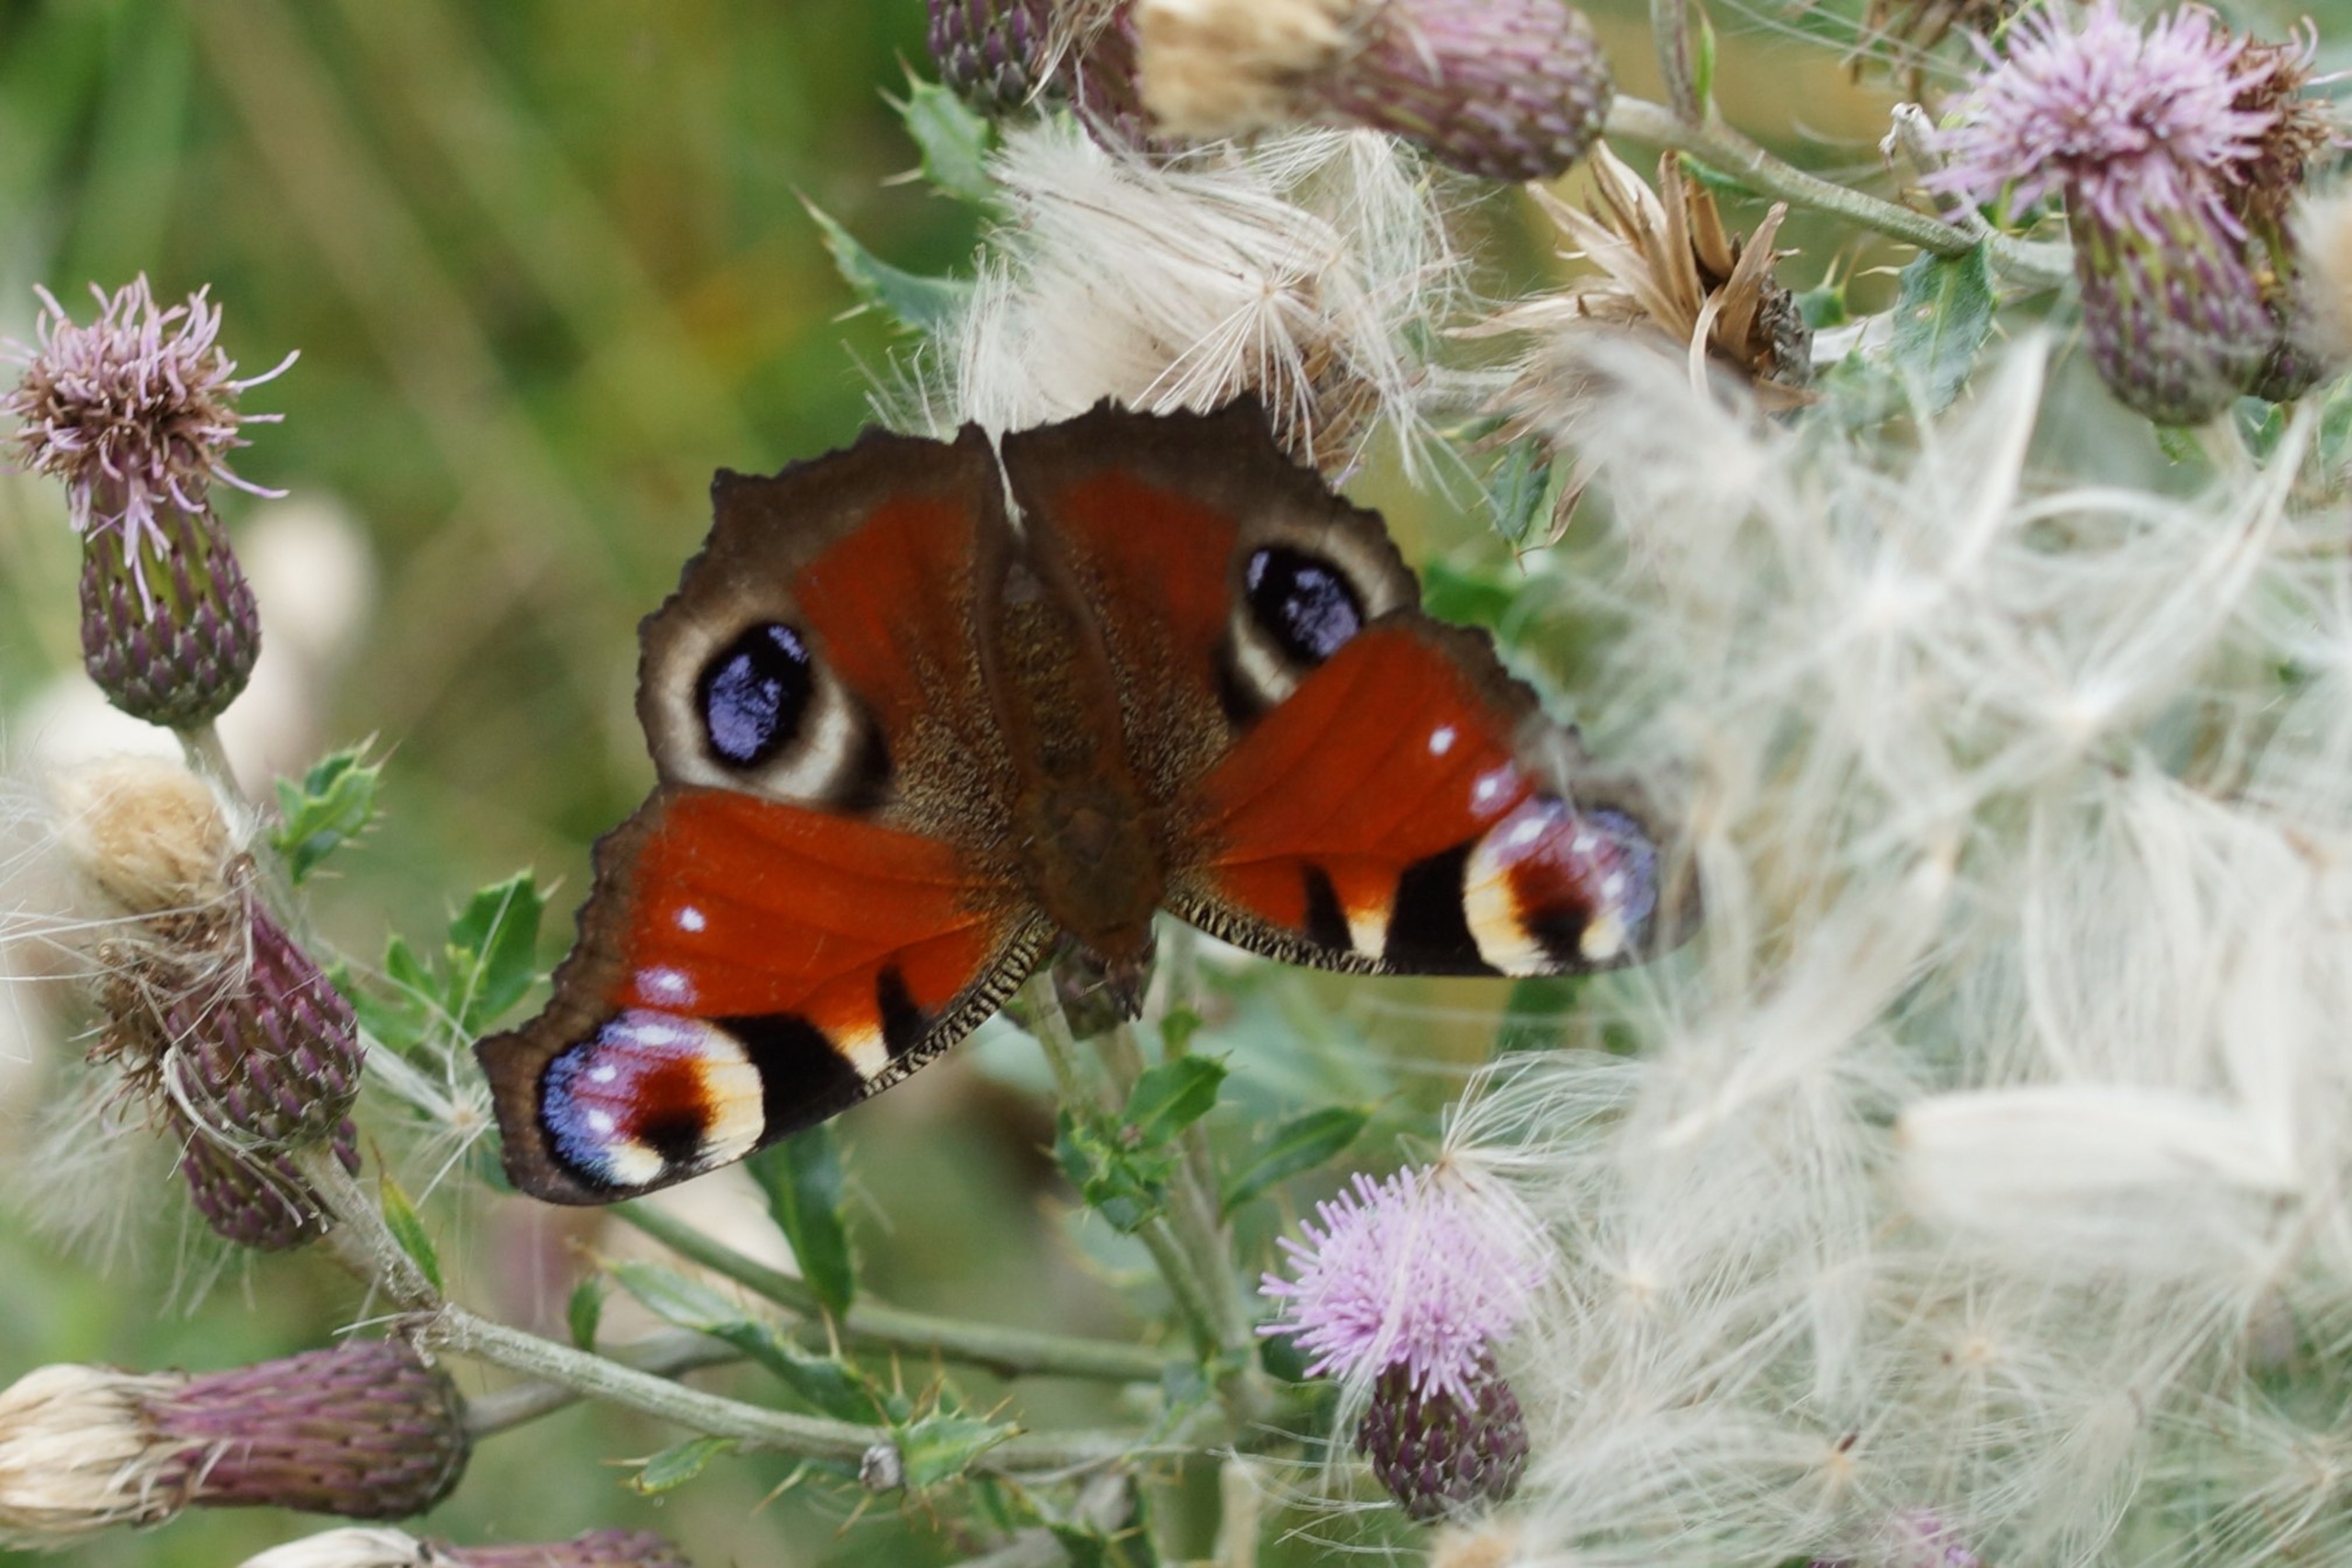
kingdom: Animalia
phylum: Arthropoda
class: Insecta
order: Lepidoptera
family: Nymphalidae
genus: Aglais
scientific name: Aglais io
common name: Dagpåfugleøje
